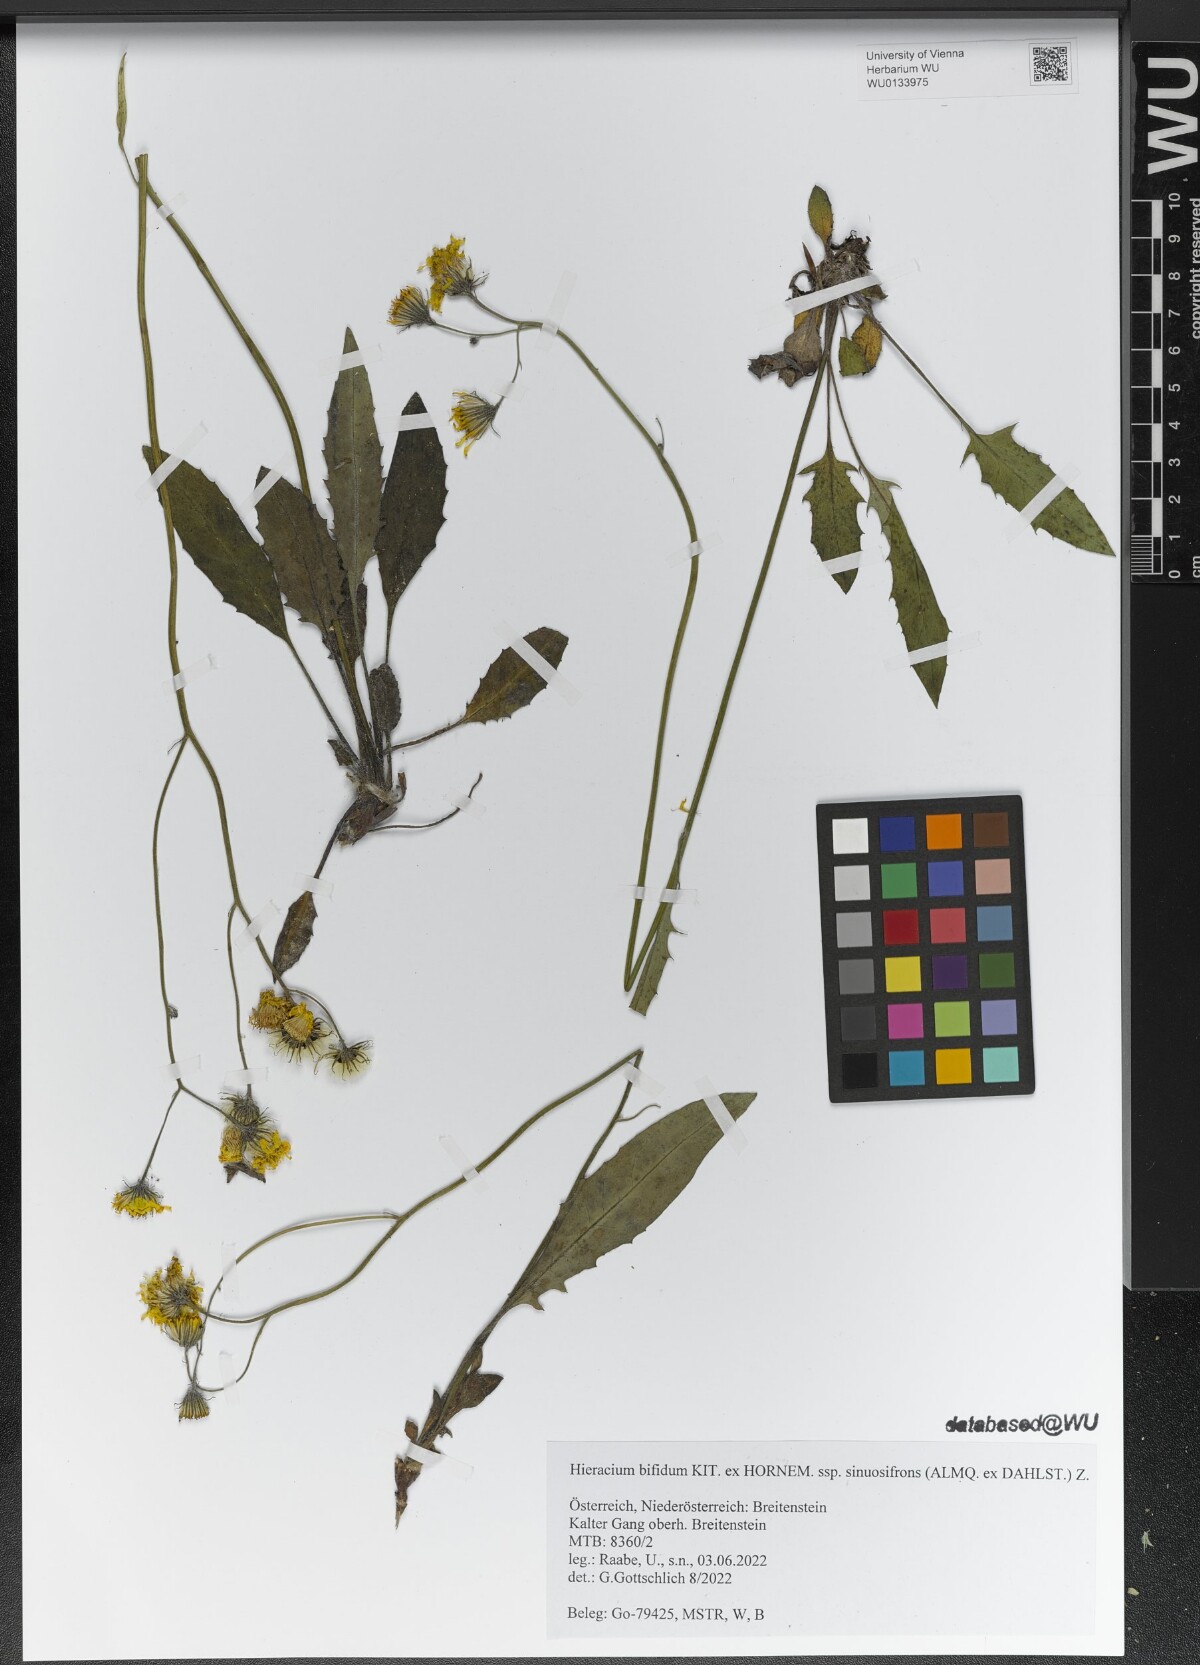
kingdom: Plantae
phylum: Tracheophyta
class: Magnoliopsida
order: Asterales
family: Asteraceae
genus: Hieracium
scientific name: Hieracium bifidum
